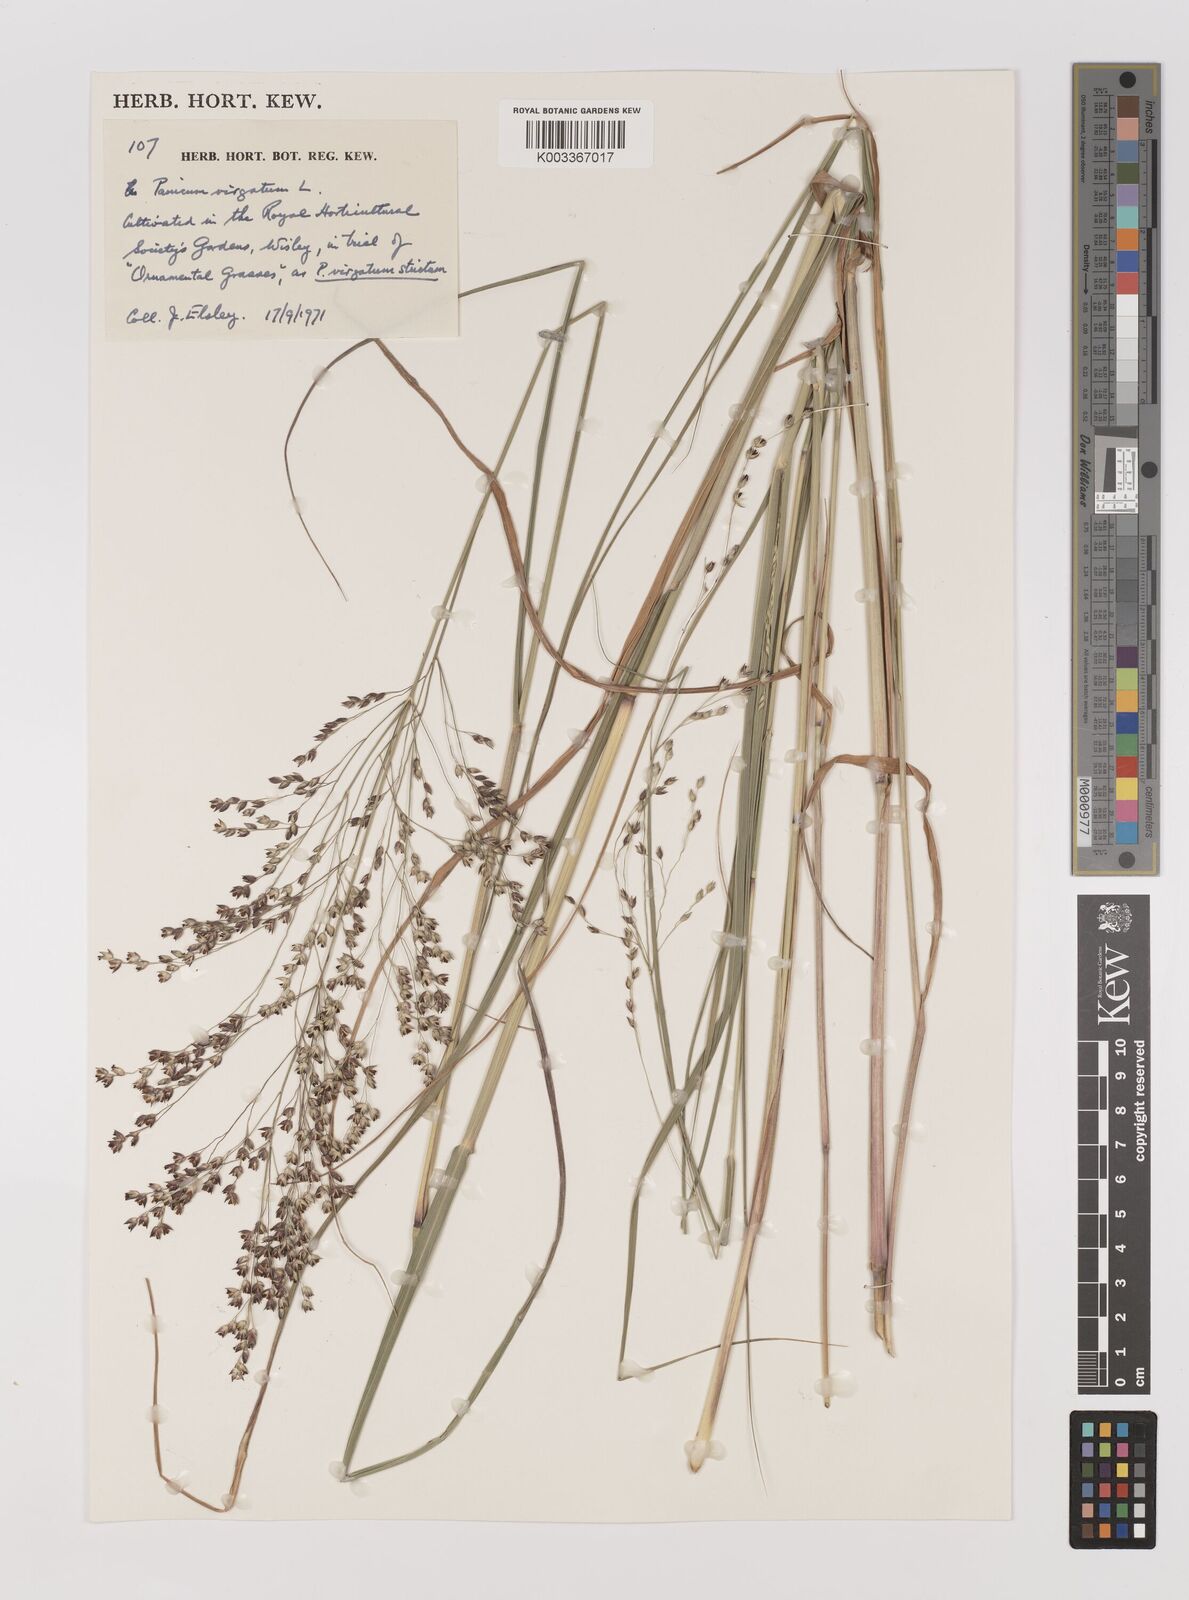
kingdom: Plantae
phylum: Tracheophyta
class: Liliopsida
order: Poales
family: Poaceae
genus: Panicum
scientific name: Panicum virgatum
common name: Switchgrass
